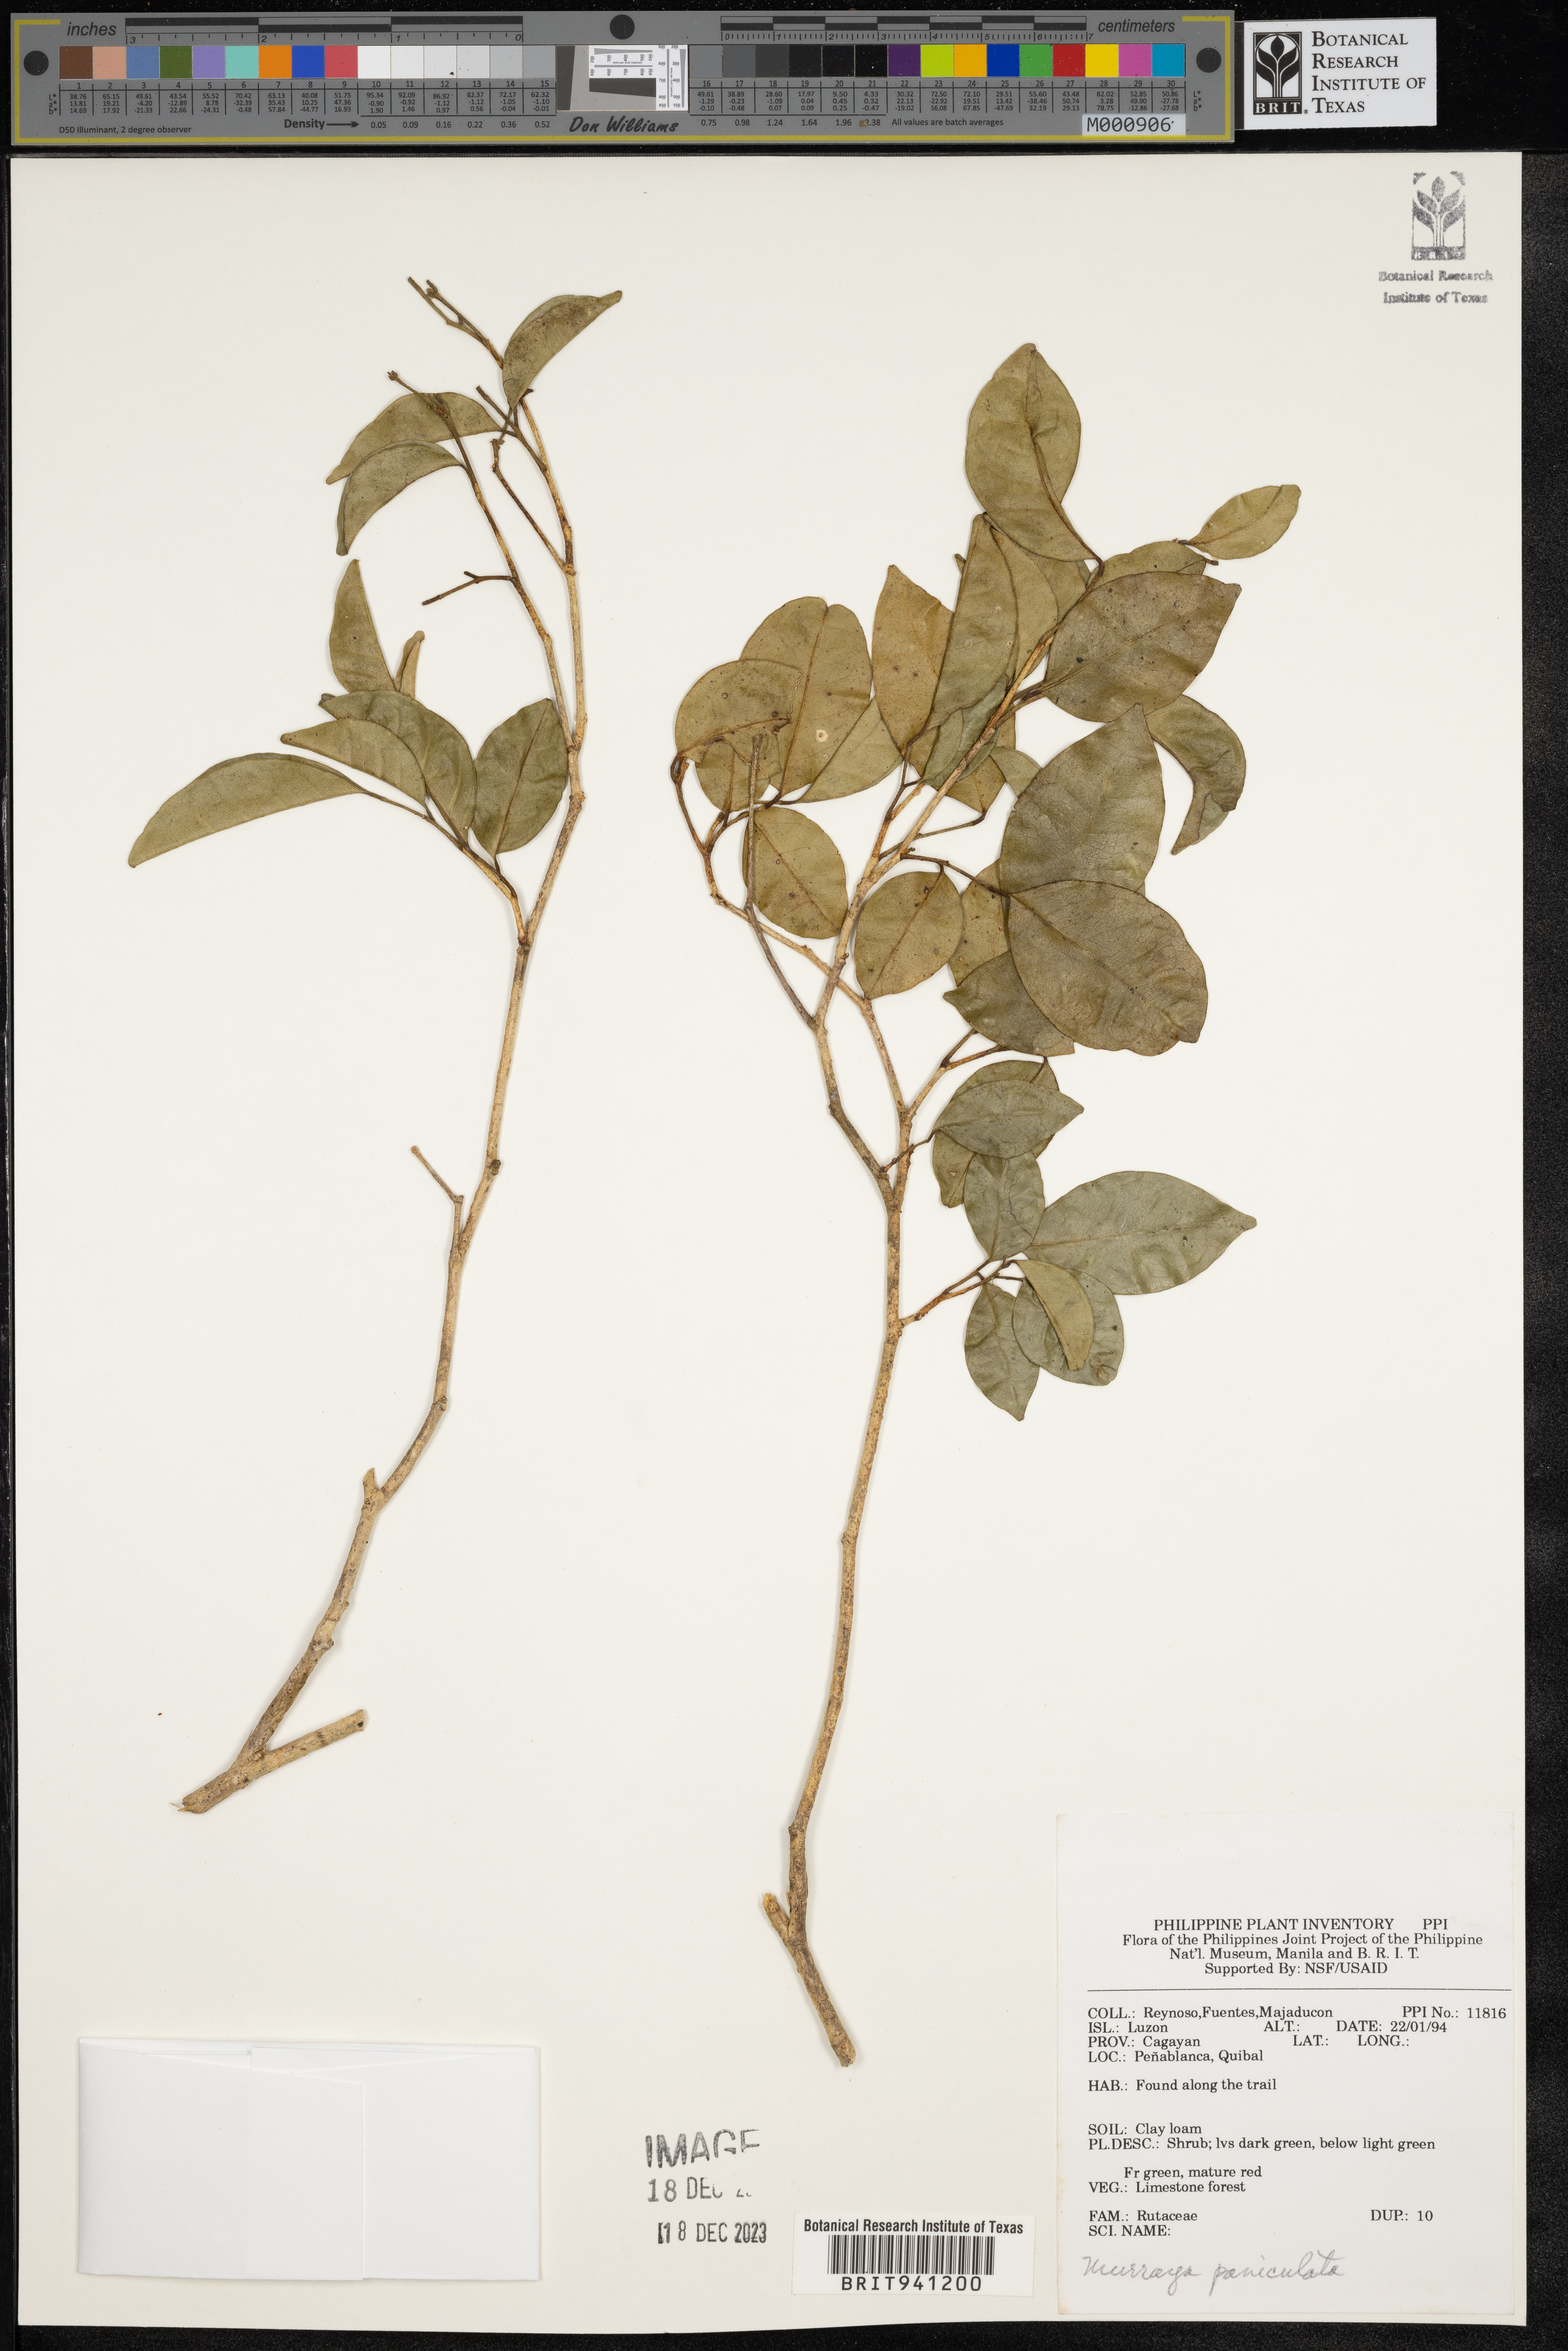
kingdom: Plantae
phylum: Tracheophyta
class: Magnoliopsida
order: Sapindales
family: Rutaceae
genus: Murraya
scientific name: Murraya
